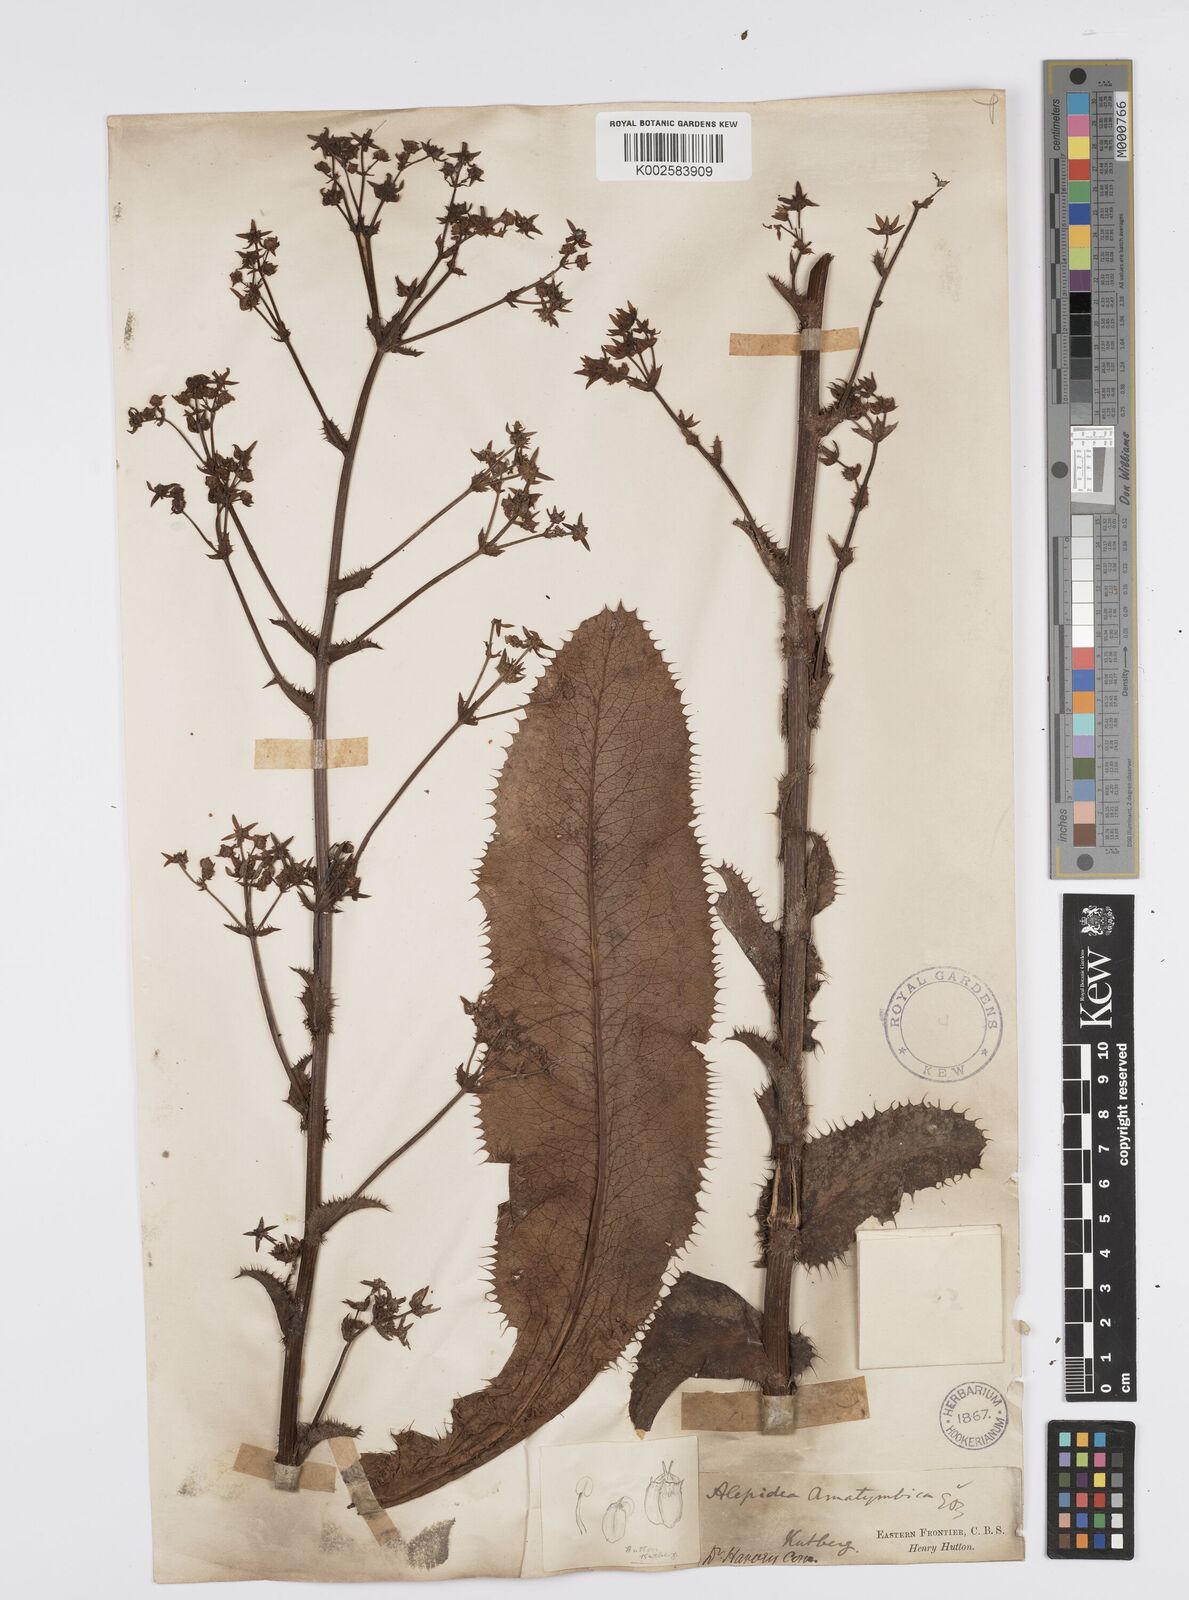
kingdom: Plantae
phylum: Tracheophyta
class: Magnoliopsida
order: Apiales
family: Apiaceae
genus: Alepidea
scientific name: Alepidea amatymbica
